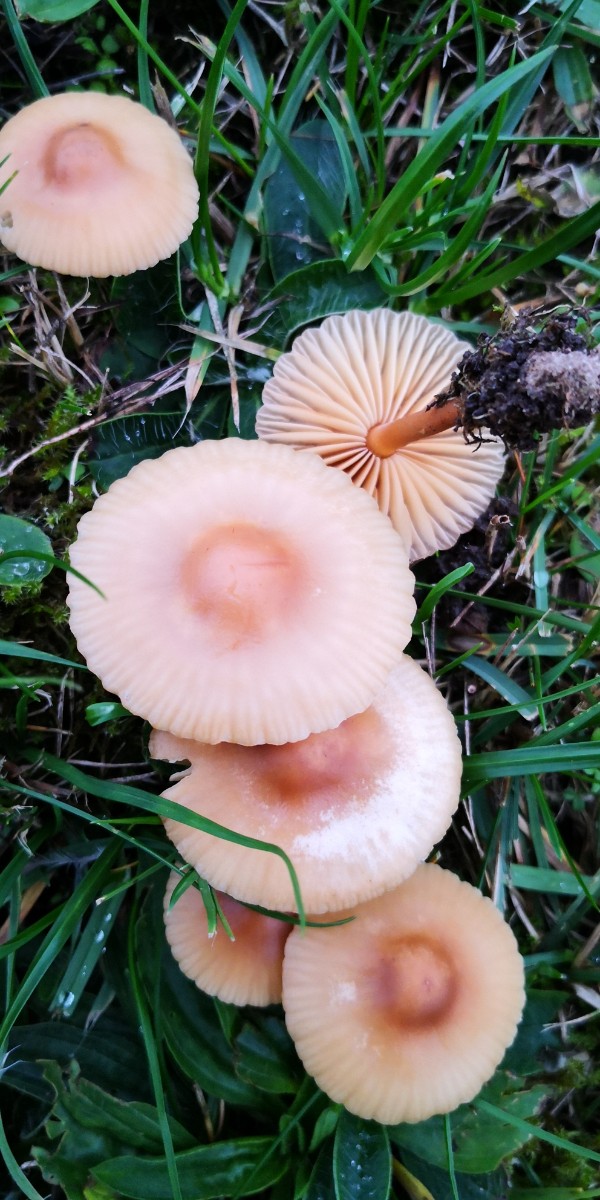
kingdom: Fungi
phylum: Basidiomycota
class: Agaricomycetes
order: Agaricales
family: Marasmiaceae
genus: Marasmius
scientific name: Marasmius oreades
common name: elledans-bruskhat
